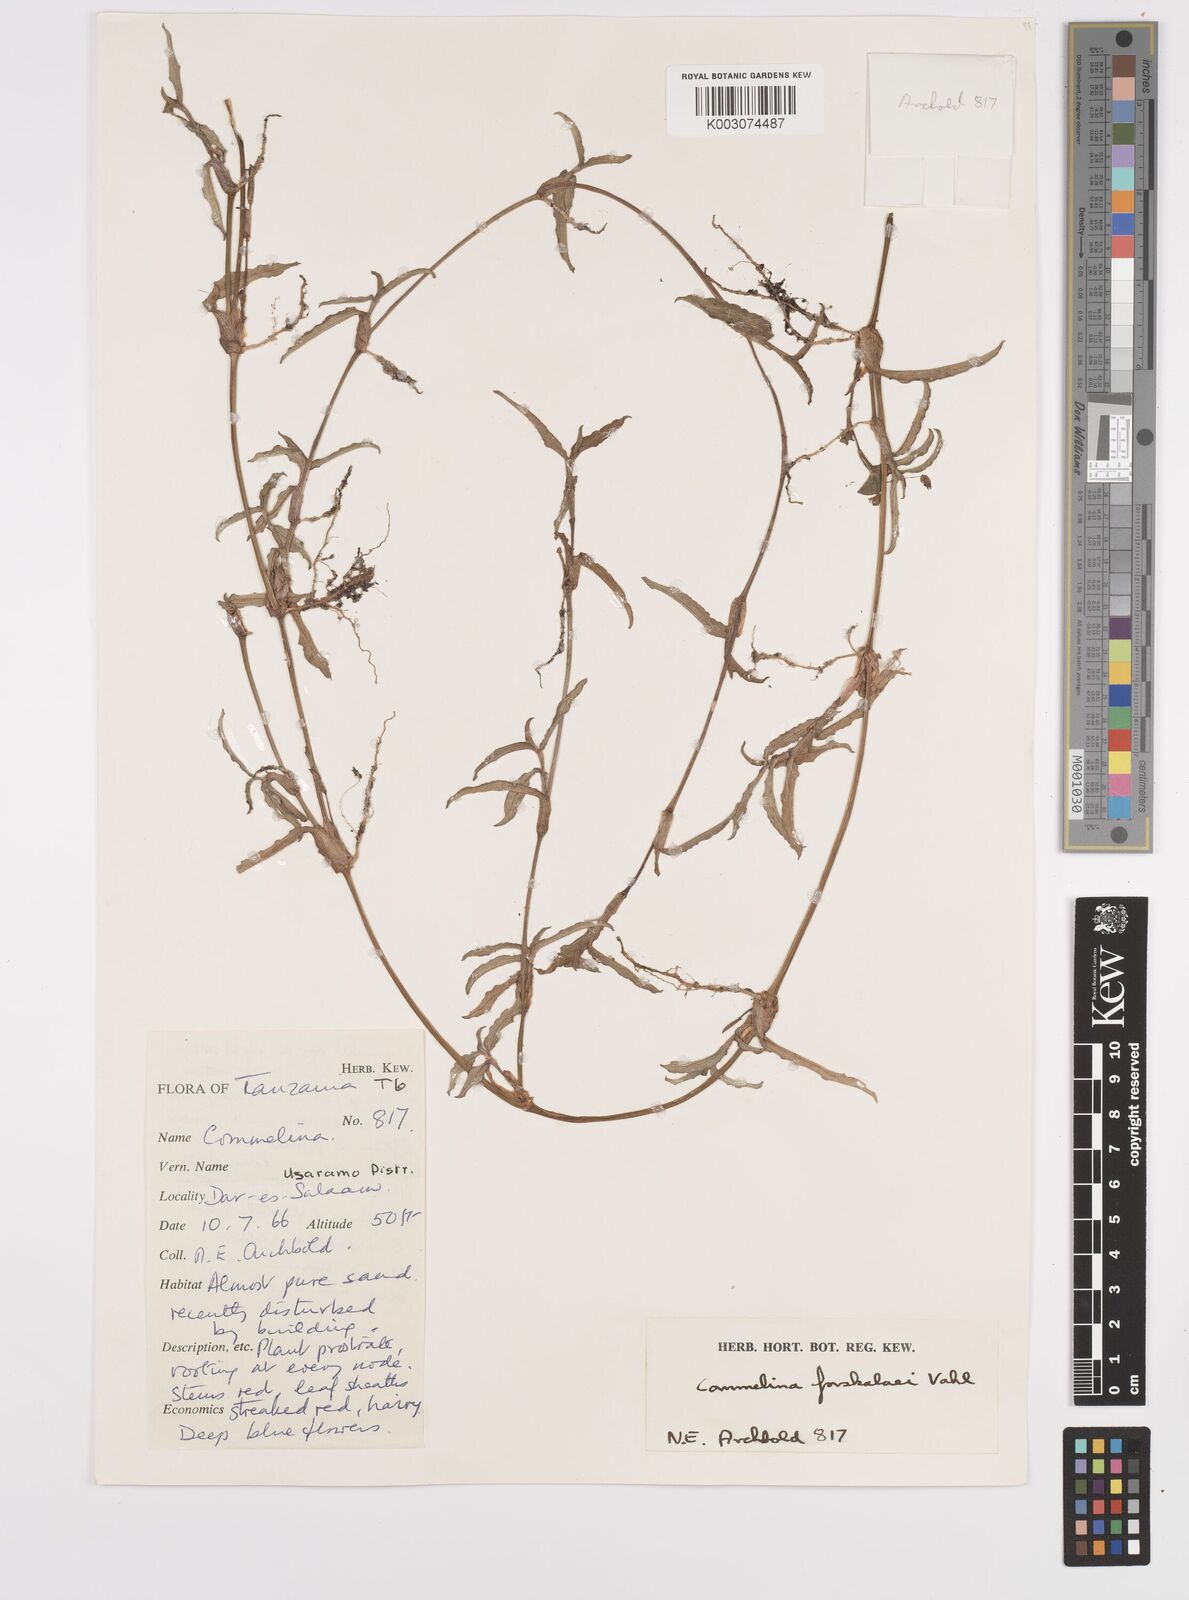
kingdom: Plantae
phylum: Tracheophyta
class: Liliopsida
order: Commelinales
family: Commelinaceae
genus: Commelina
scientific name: Commelina
